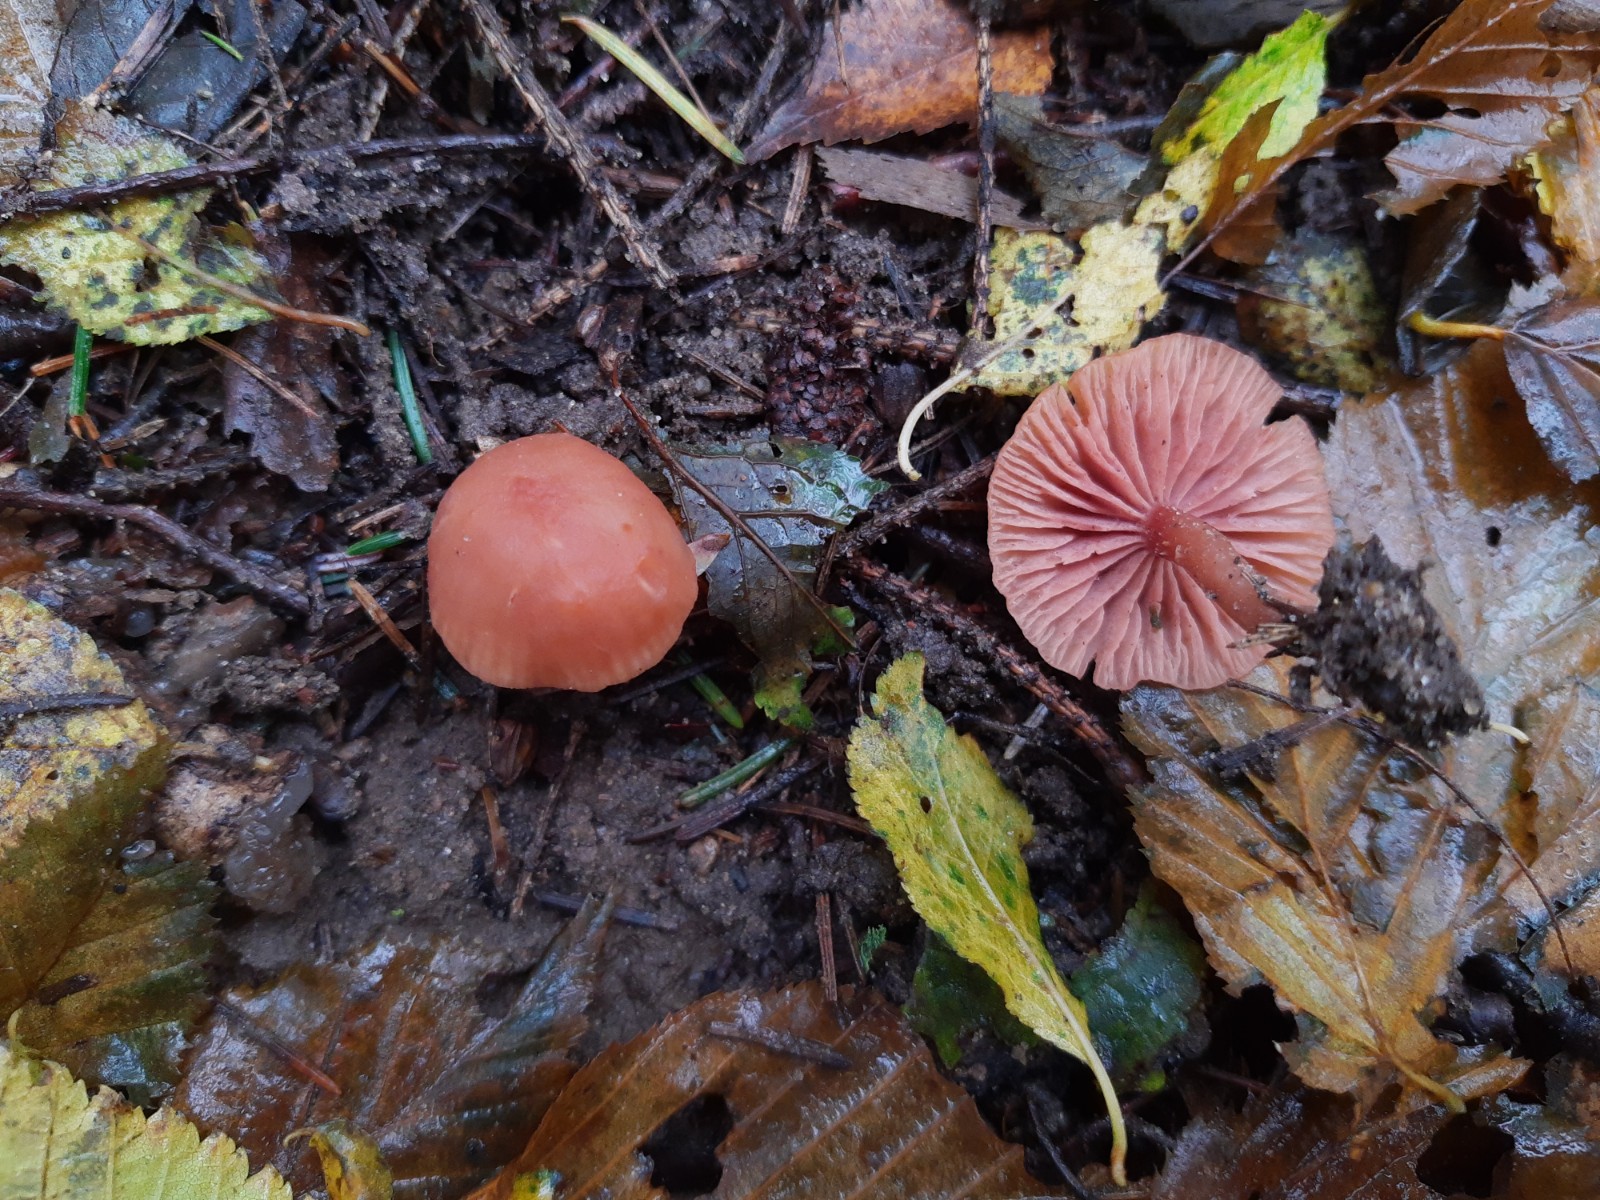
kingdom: Fungi
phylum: Basidiomycota
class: Agaricomycetes
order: Agaricales
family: Hydnangiaceae
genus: Laccaria
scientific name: Laccaria laccata
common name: rød ametysthat
